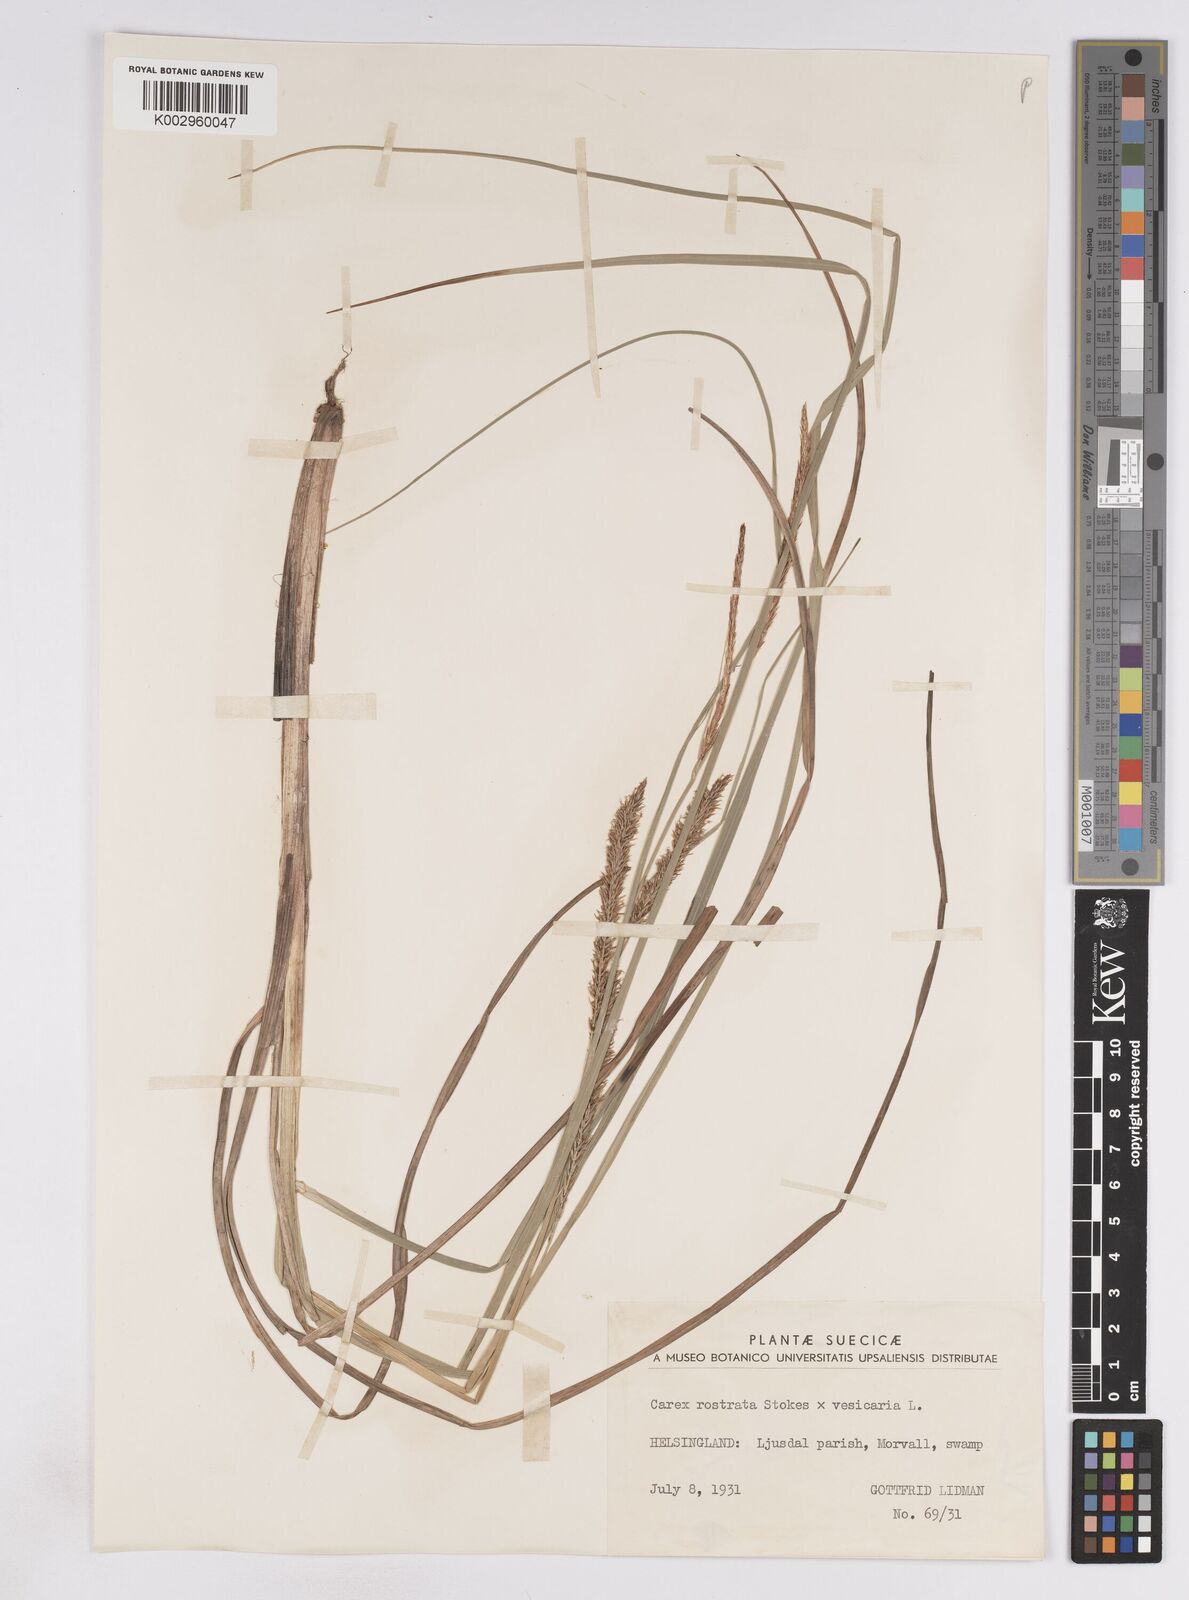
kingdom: Plantae
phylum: Tracheophyta
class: Liliopsida
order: Poales
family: Cyperaceae
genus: Carex
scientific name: Carex
